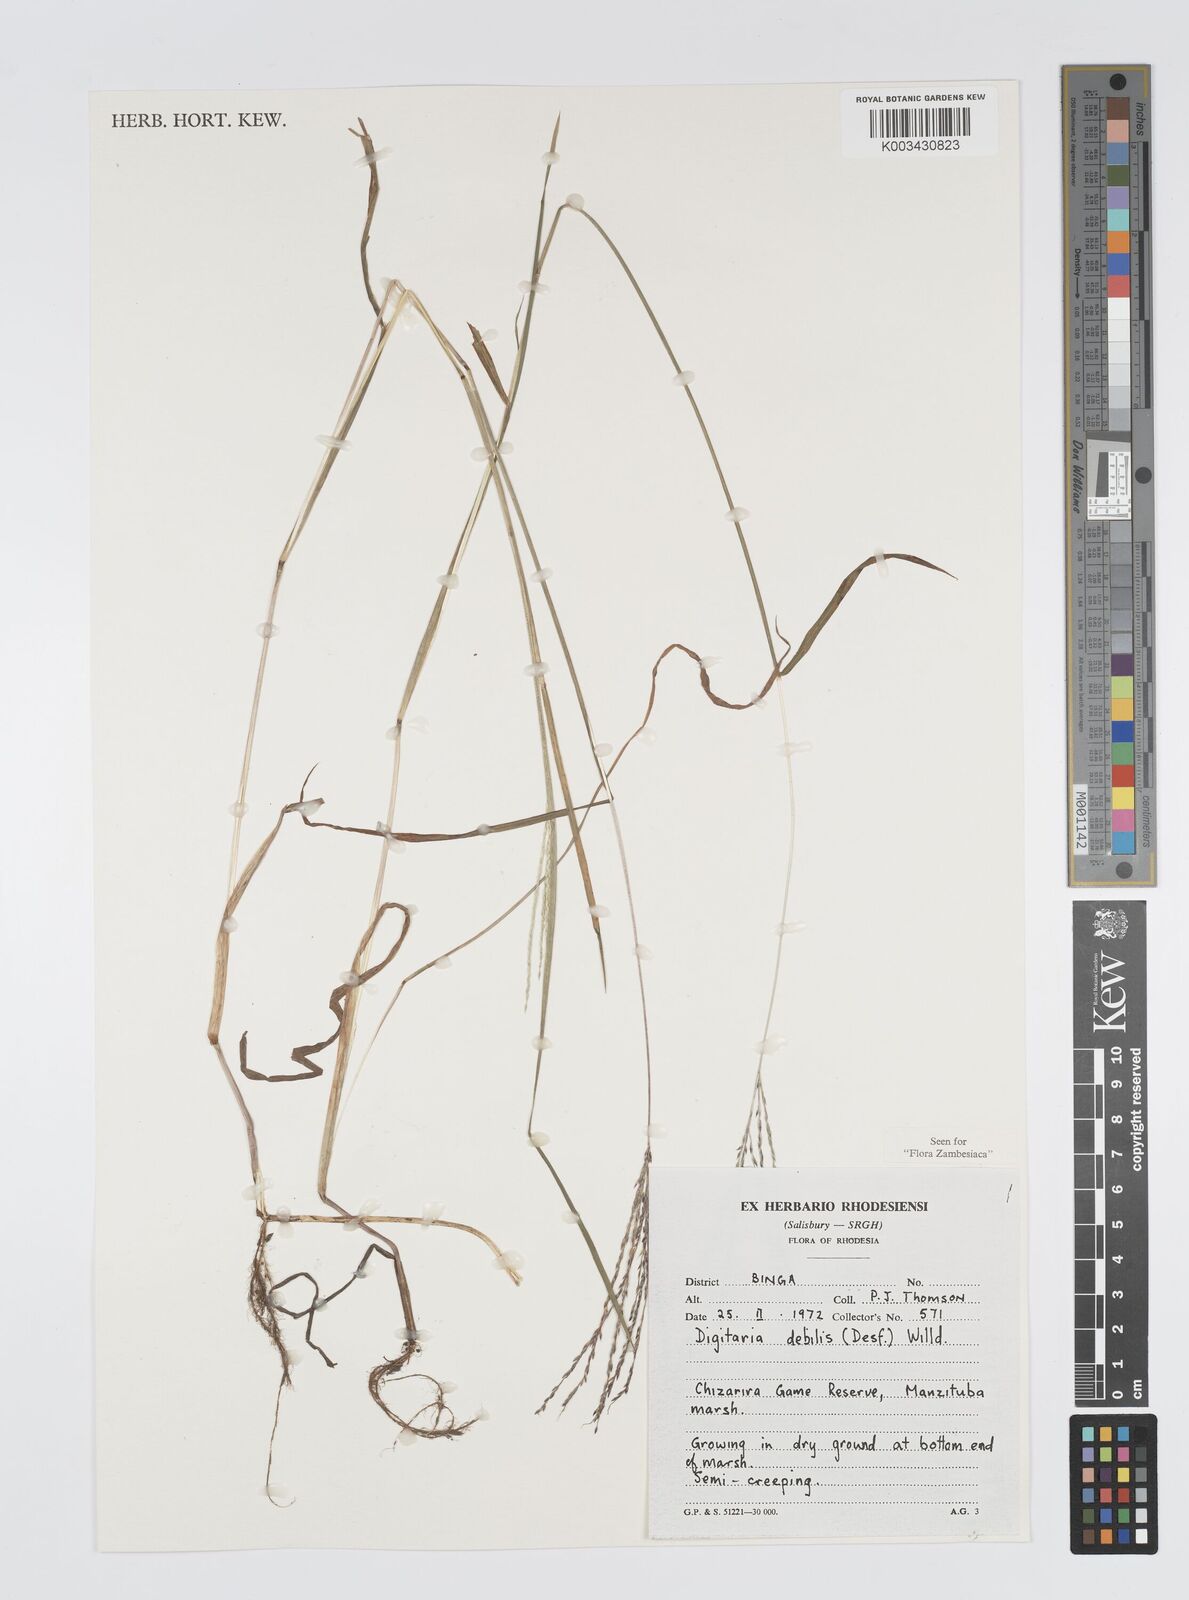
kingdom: Plantae
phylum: Tracheophyta
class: Liliopsida
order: Poales
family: Poaceae
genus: Digitaria
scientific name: Digitaria debilis
